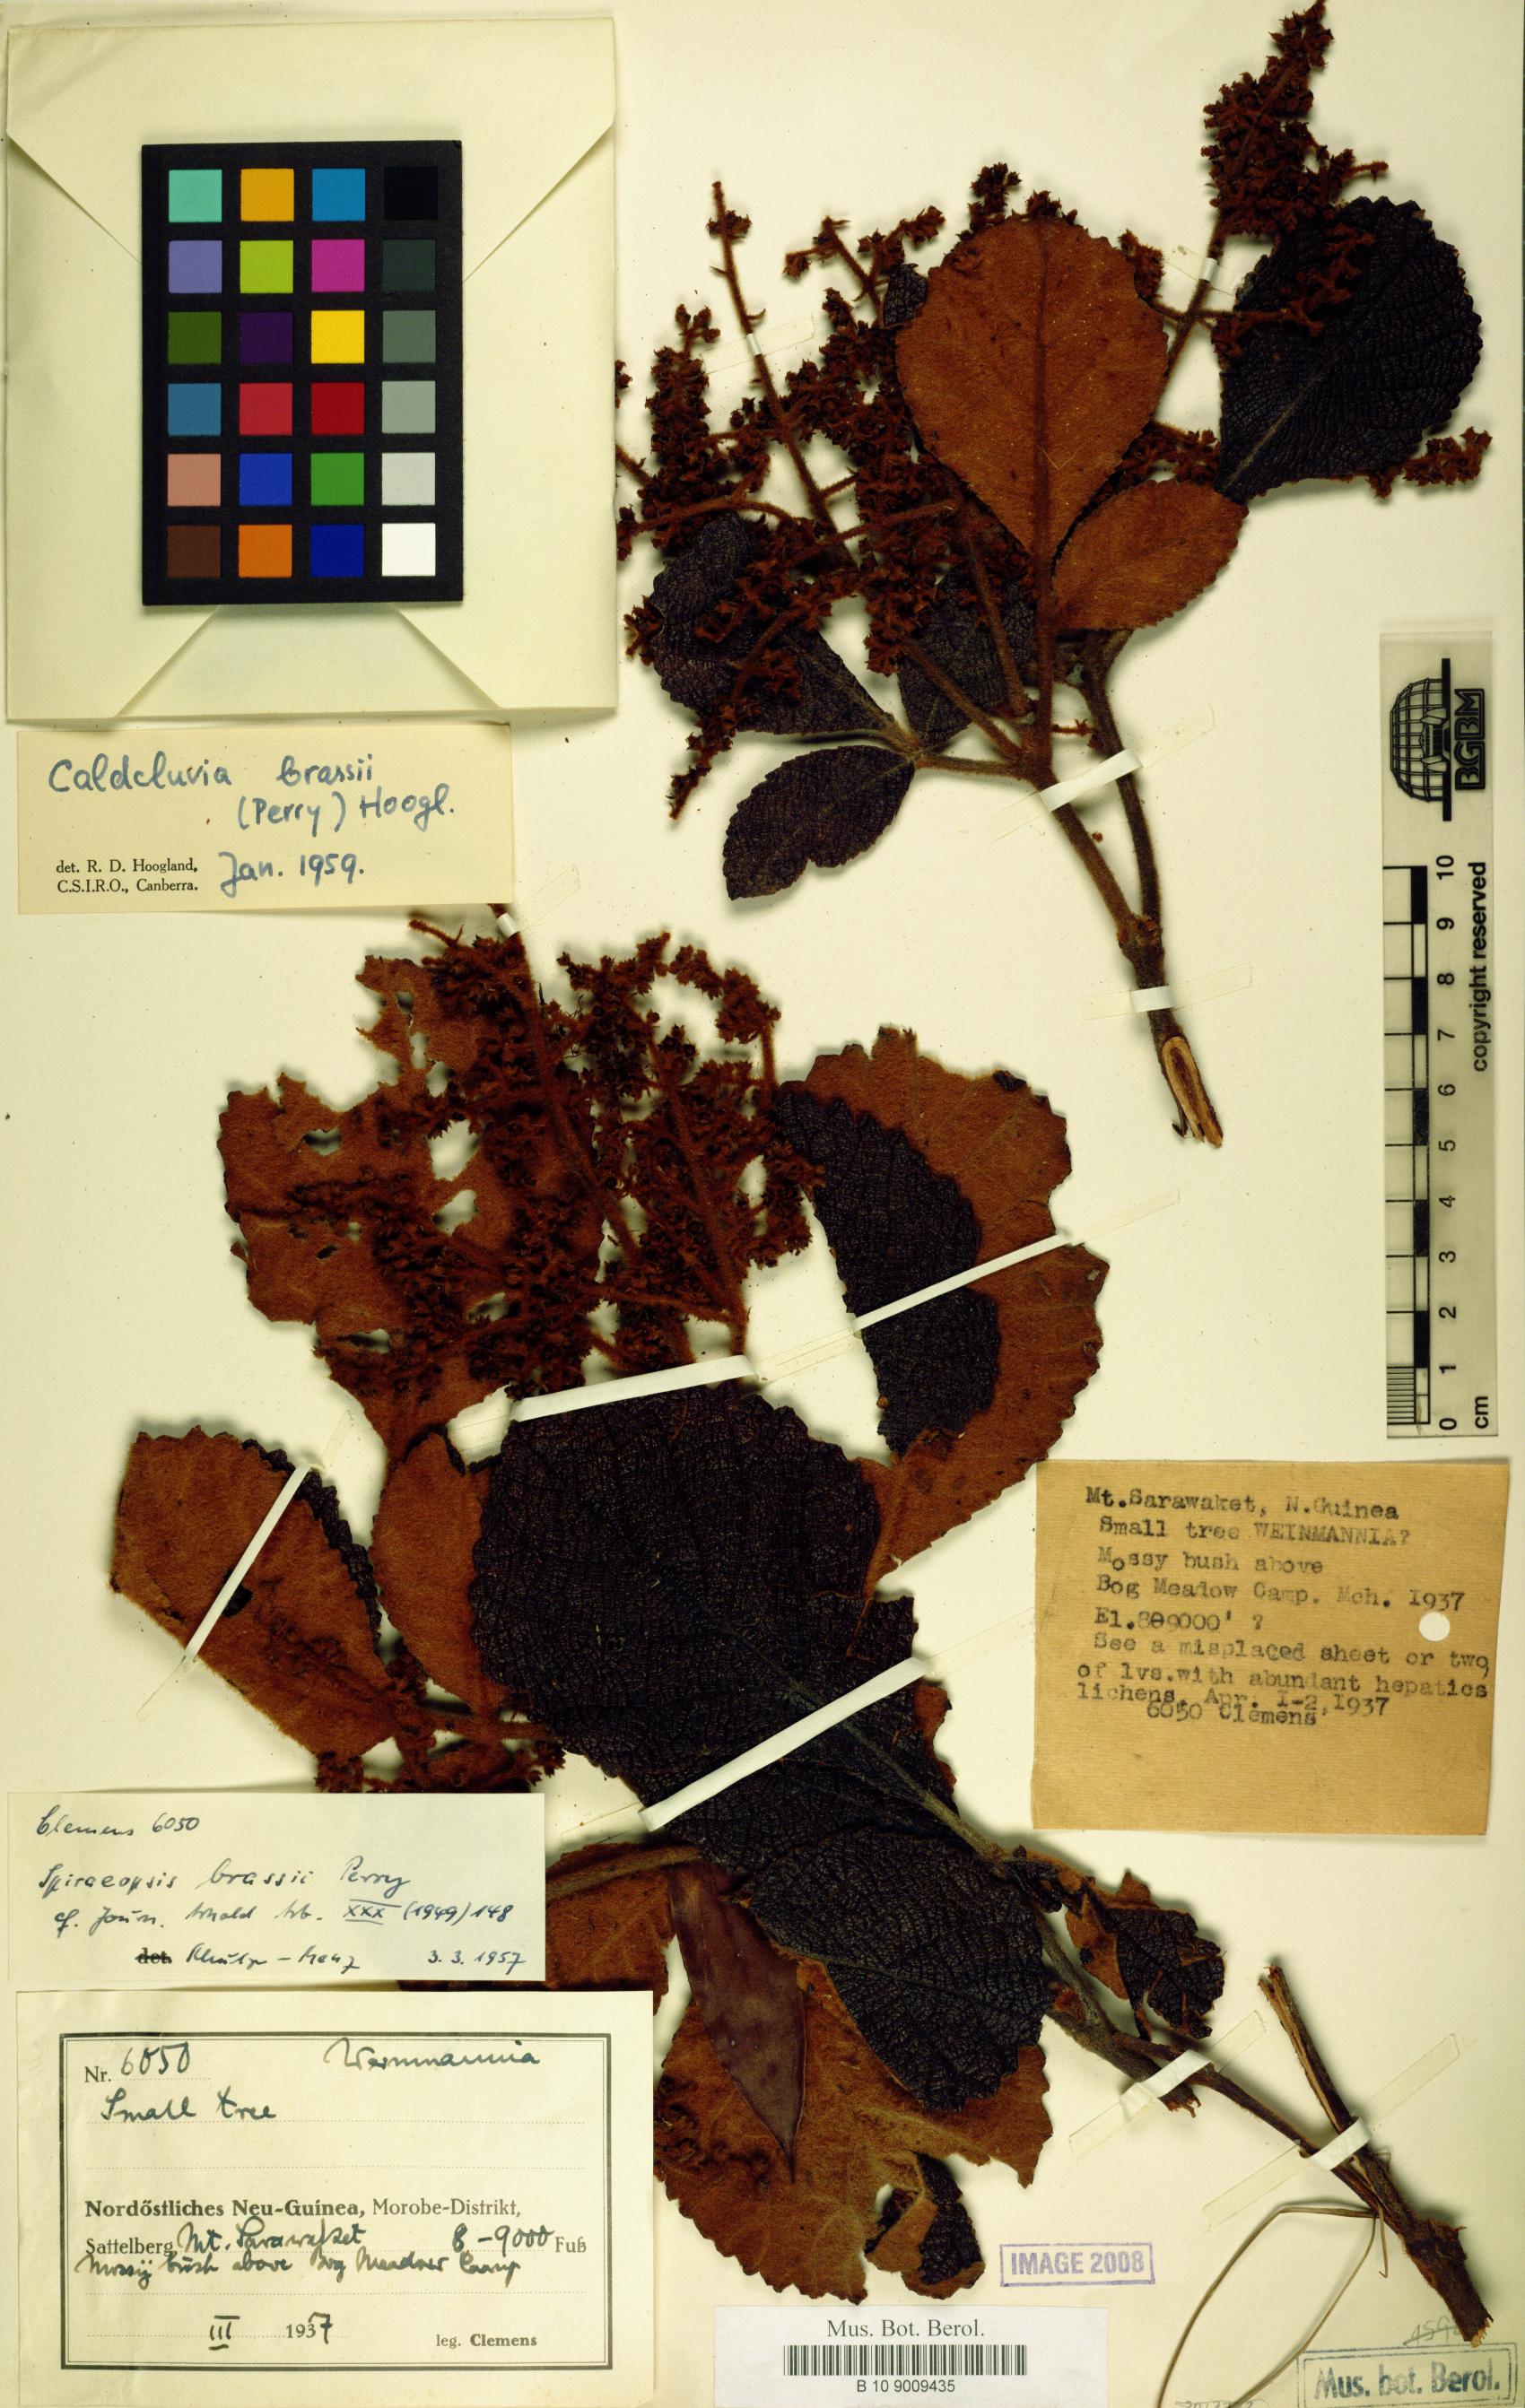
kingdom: Plantae
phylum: Tracheophyta
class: Magnoliopsida
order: Oxalidales
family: Cunoniaceae
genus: Ackama
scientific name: Ackama brassii
